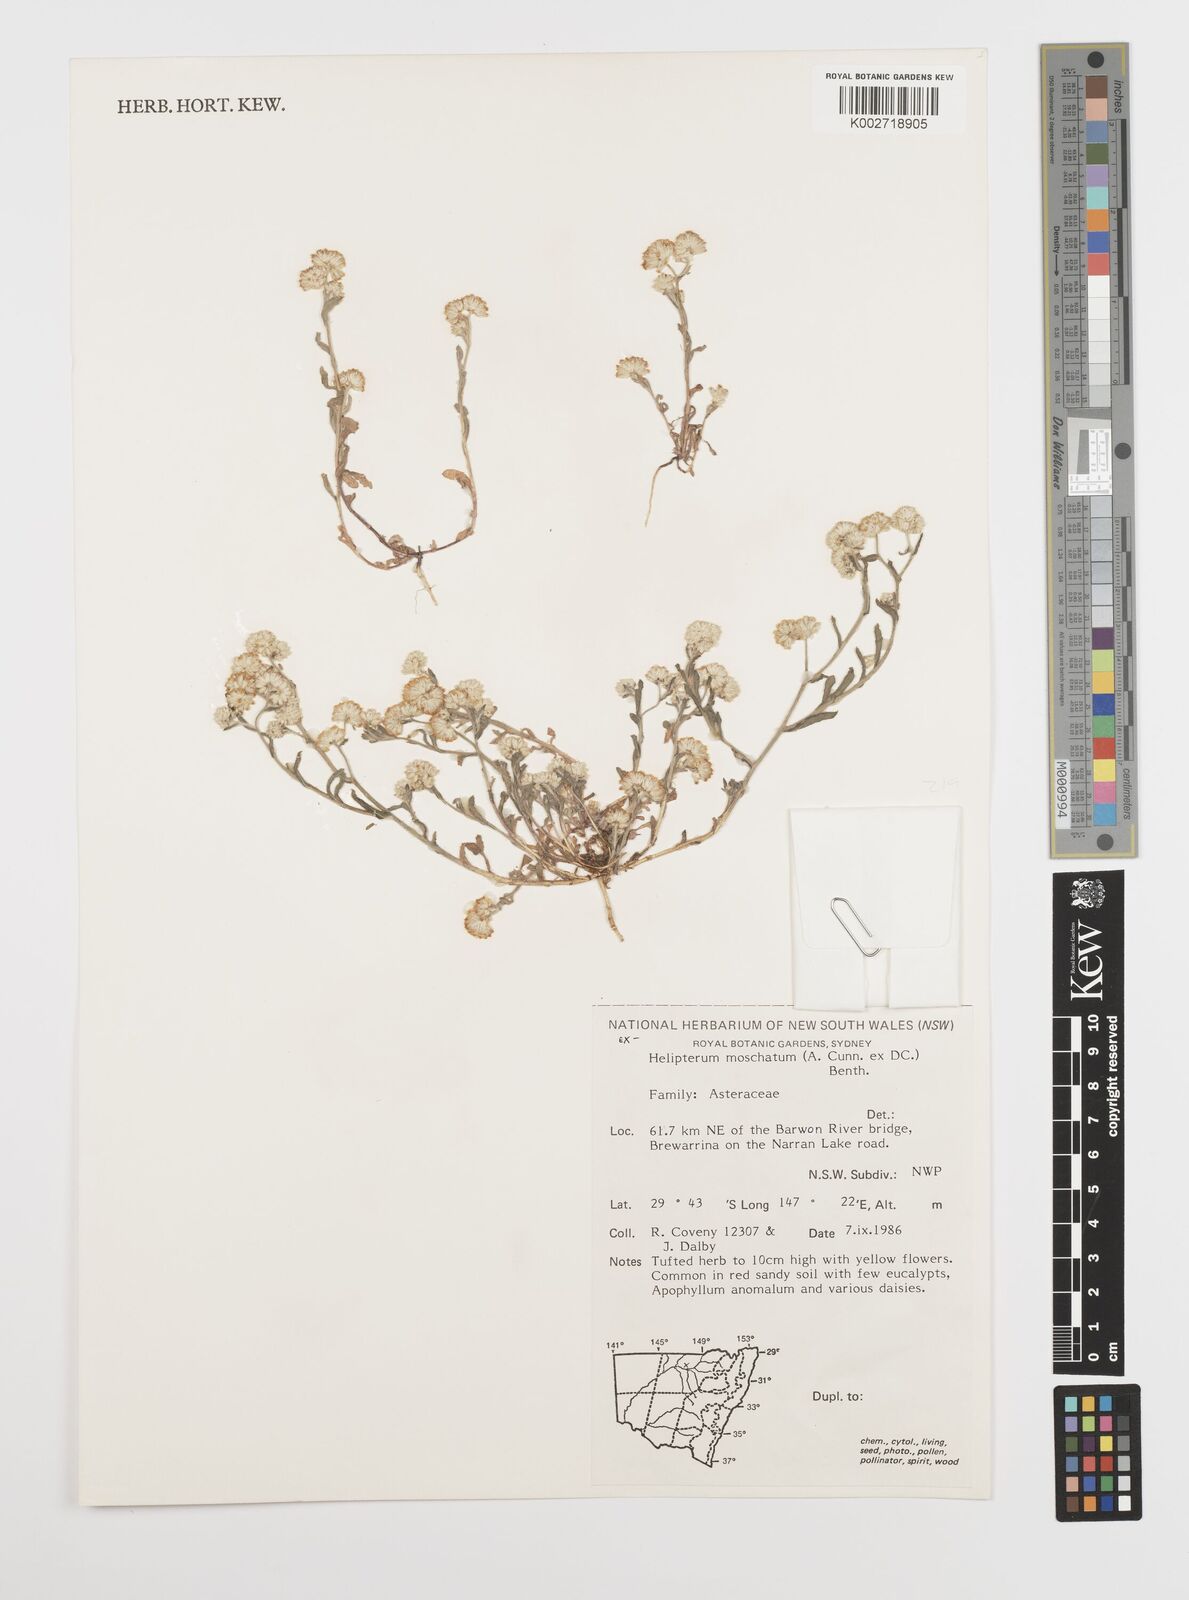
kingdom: Plantae
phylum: Tracheophyta
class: Magnoliopsida
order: Asterales
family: Asteraceae
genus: Rhodanthe
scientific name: Rhodanthe moschata
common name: Musk sunray
